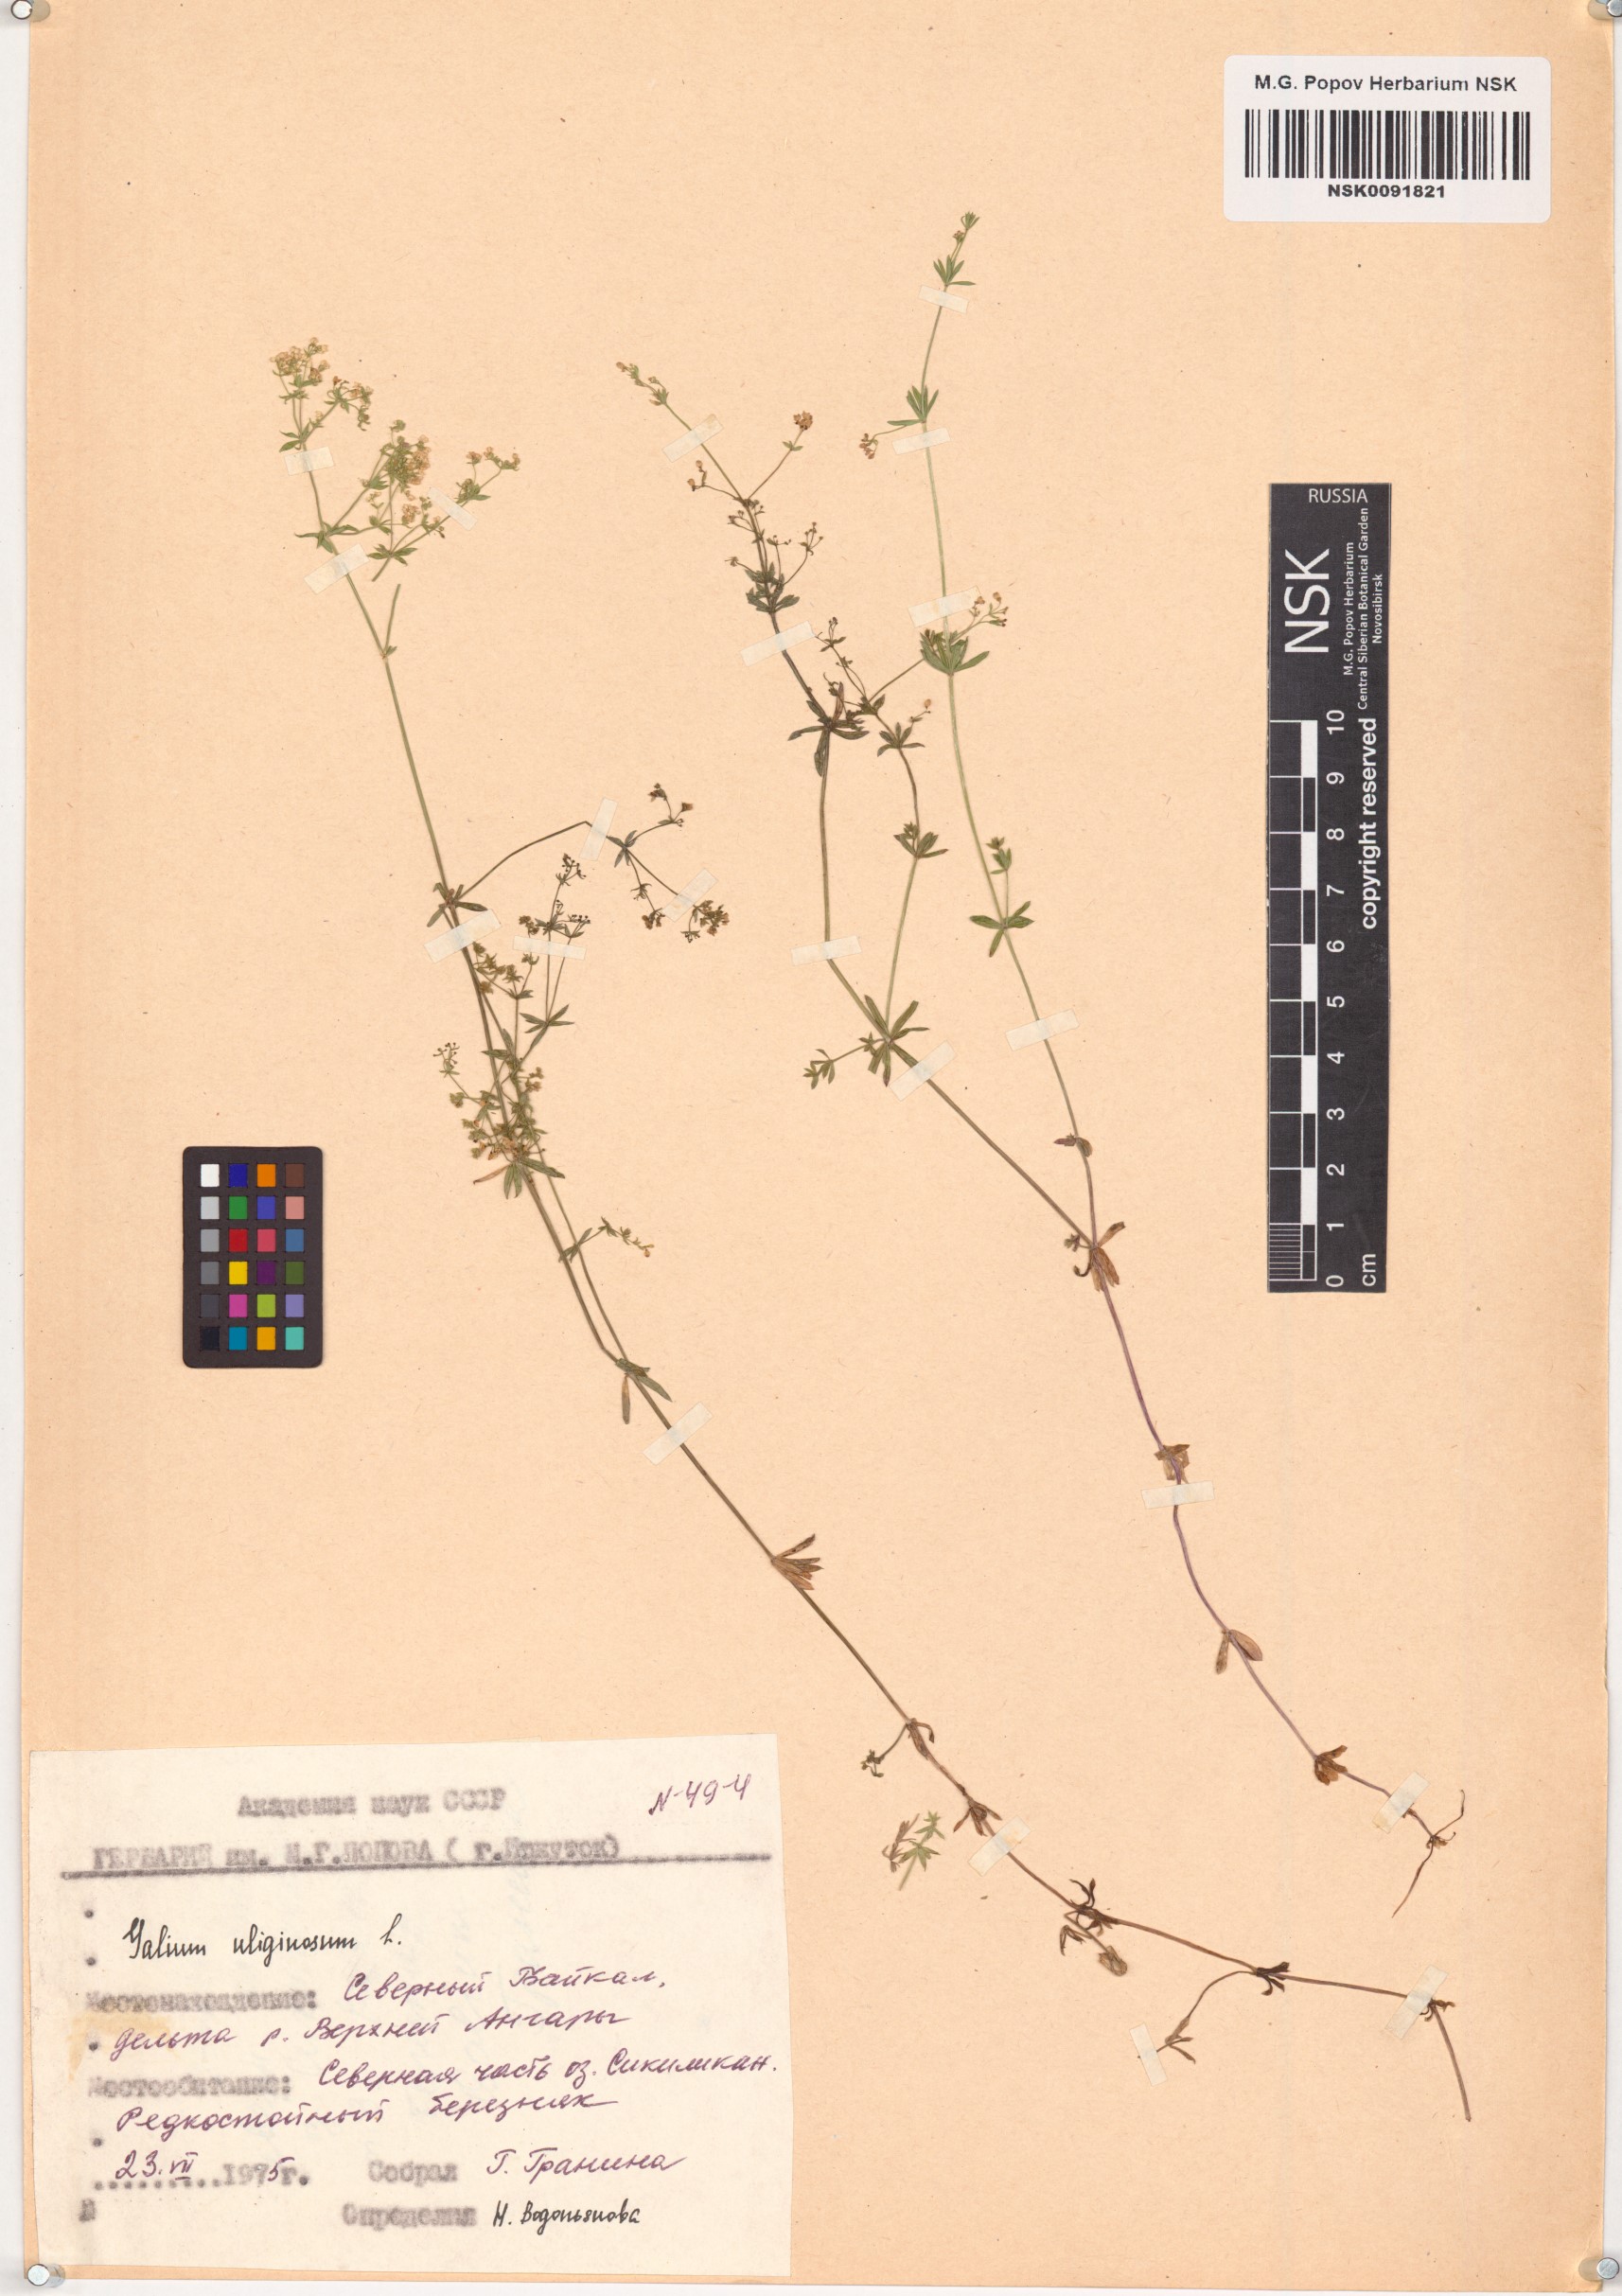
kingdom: Plantae
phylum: Tracheophyta
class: Magnoliopsida
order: Gentianales
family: Rubiaceae
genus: Galium
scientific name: Galium uliginosum
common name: Fen bedstraw
